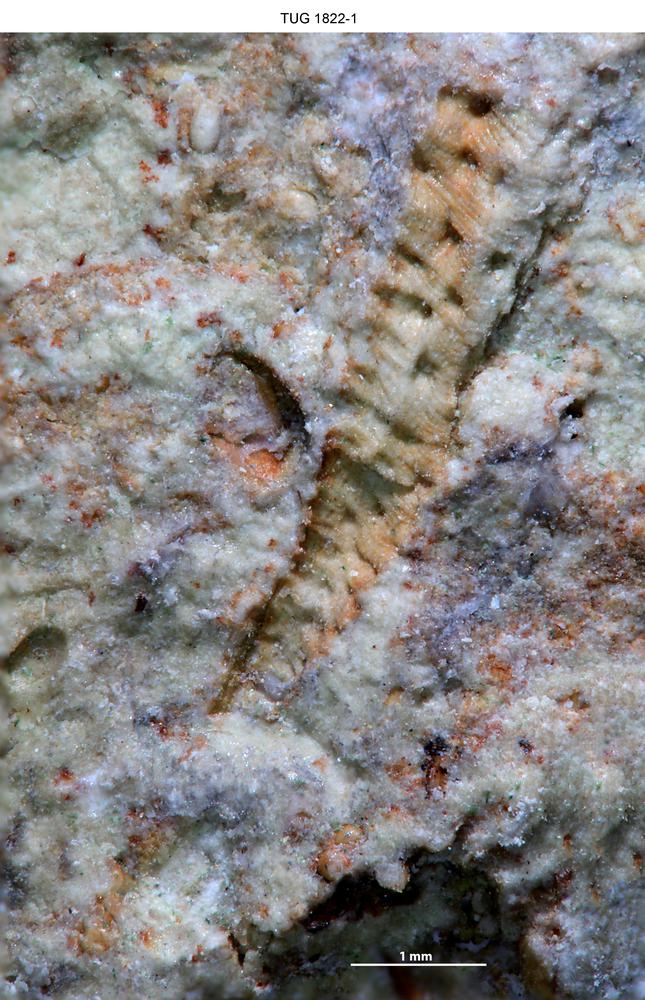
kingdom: Animalia
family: Cornulitidae
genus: Cornulites
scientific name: Cornulites
